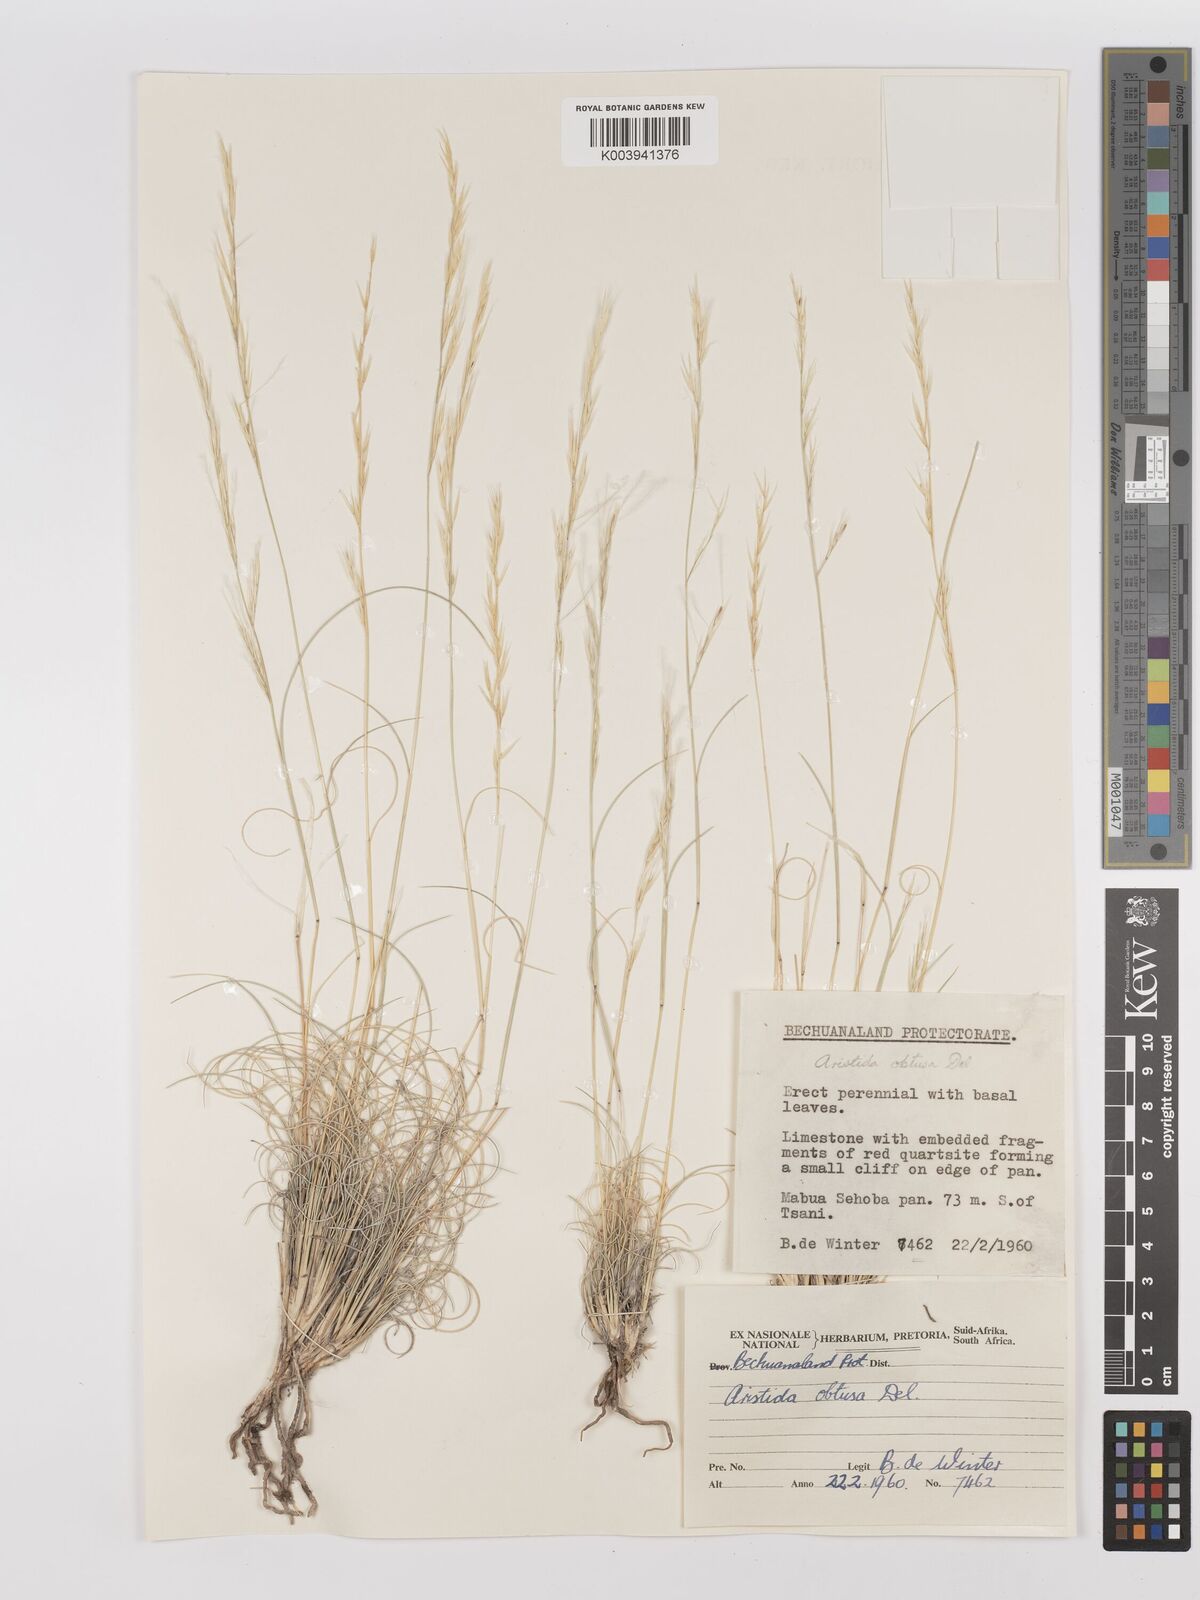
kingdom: Plantae
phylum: Tracheophyta
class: Liliopsida
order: Poales
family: Poaceae
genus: Stipagrostis
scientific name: Stipagrostis obtusa
